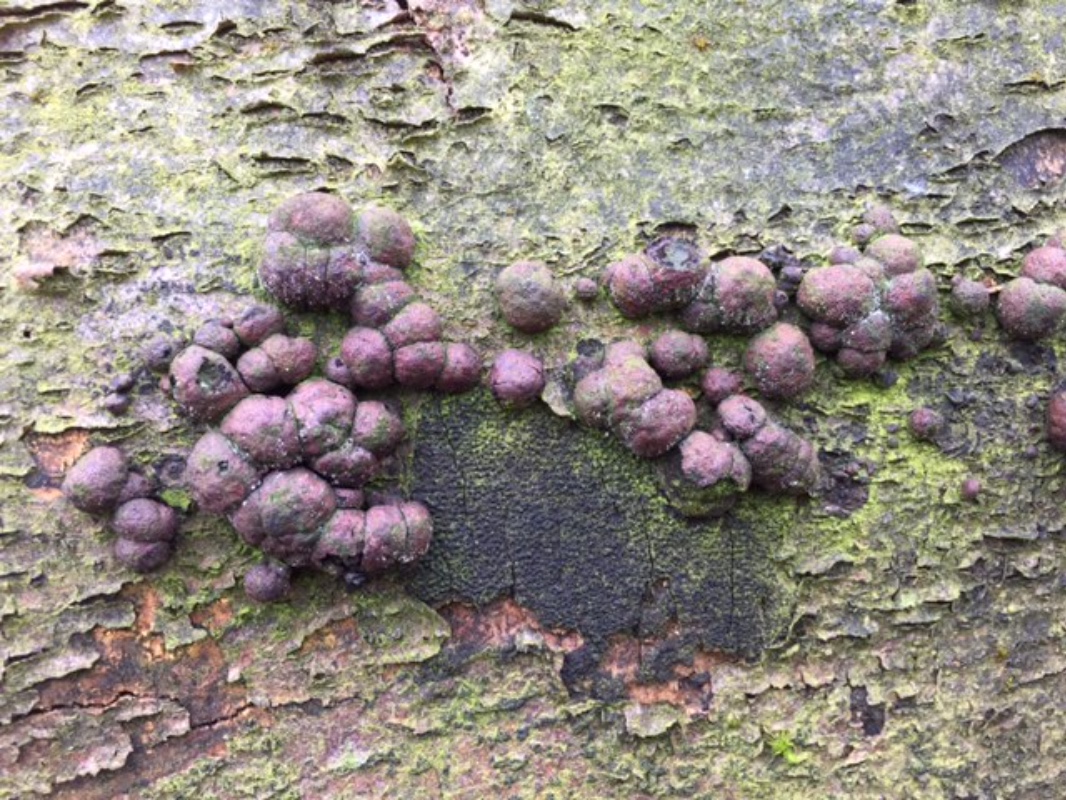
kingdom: Fungi
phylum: Ascomycota
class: Sordariomycetes
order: Xylariales
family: Hypoxylaceae
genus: Hypoxylon
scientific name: Hypoxylon fragiforme
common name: kuljordbær
